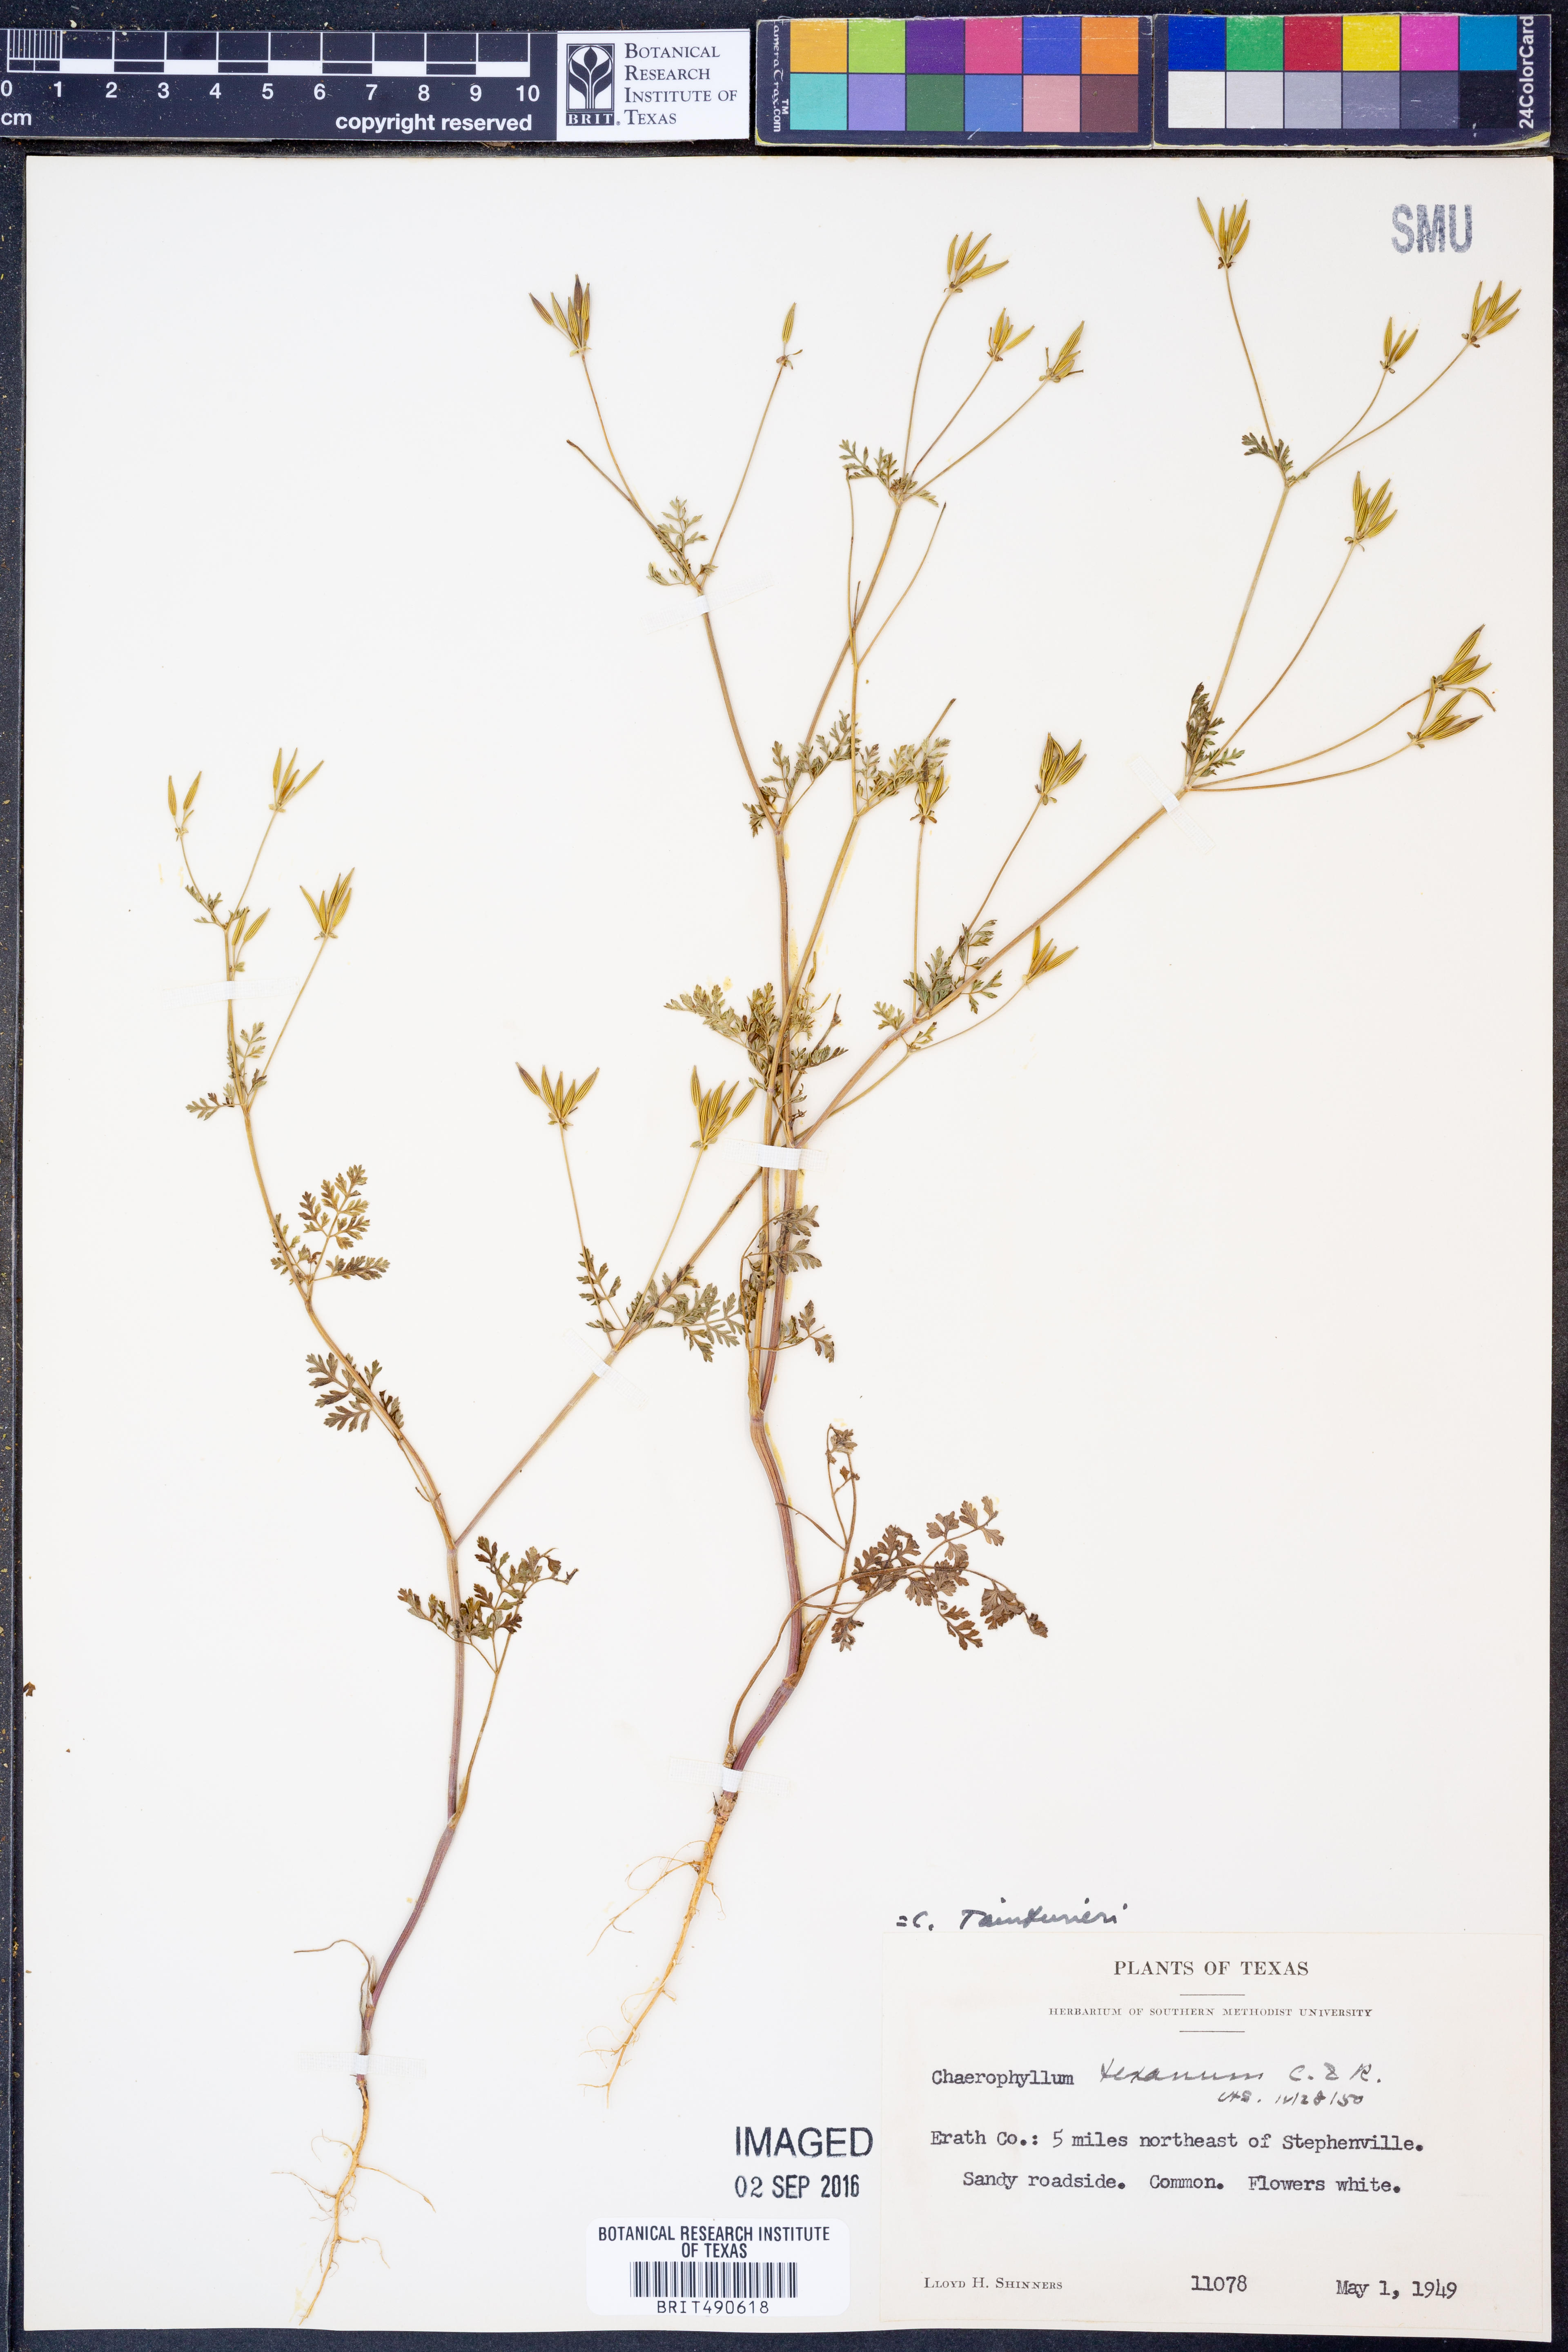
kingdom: Plantae
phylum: Tracheophyta
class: Magnoliopsida
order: Apiales
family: Apiaceae
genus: Chaerophyllum
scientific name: Chaerophyllum tainturieri
